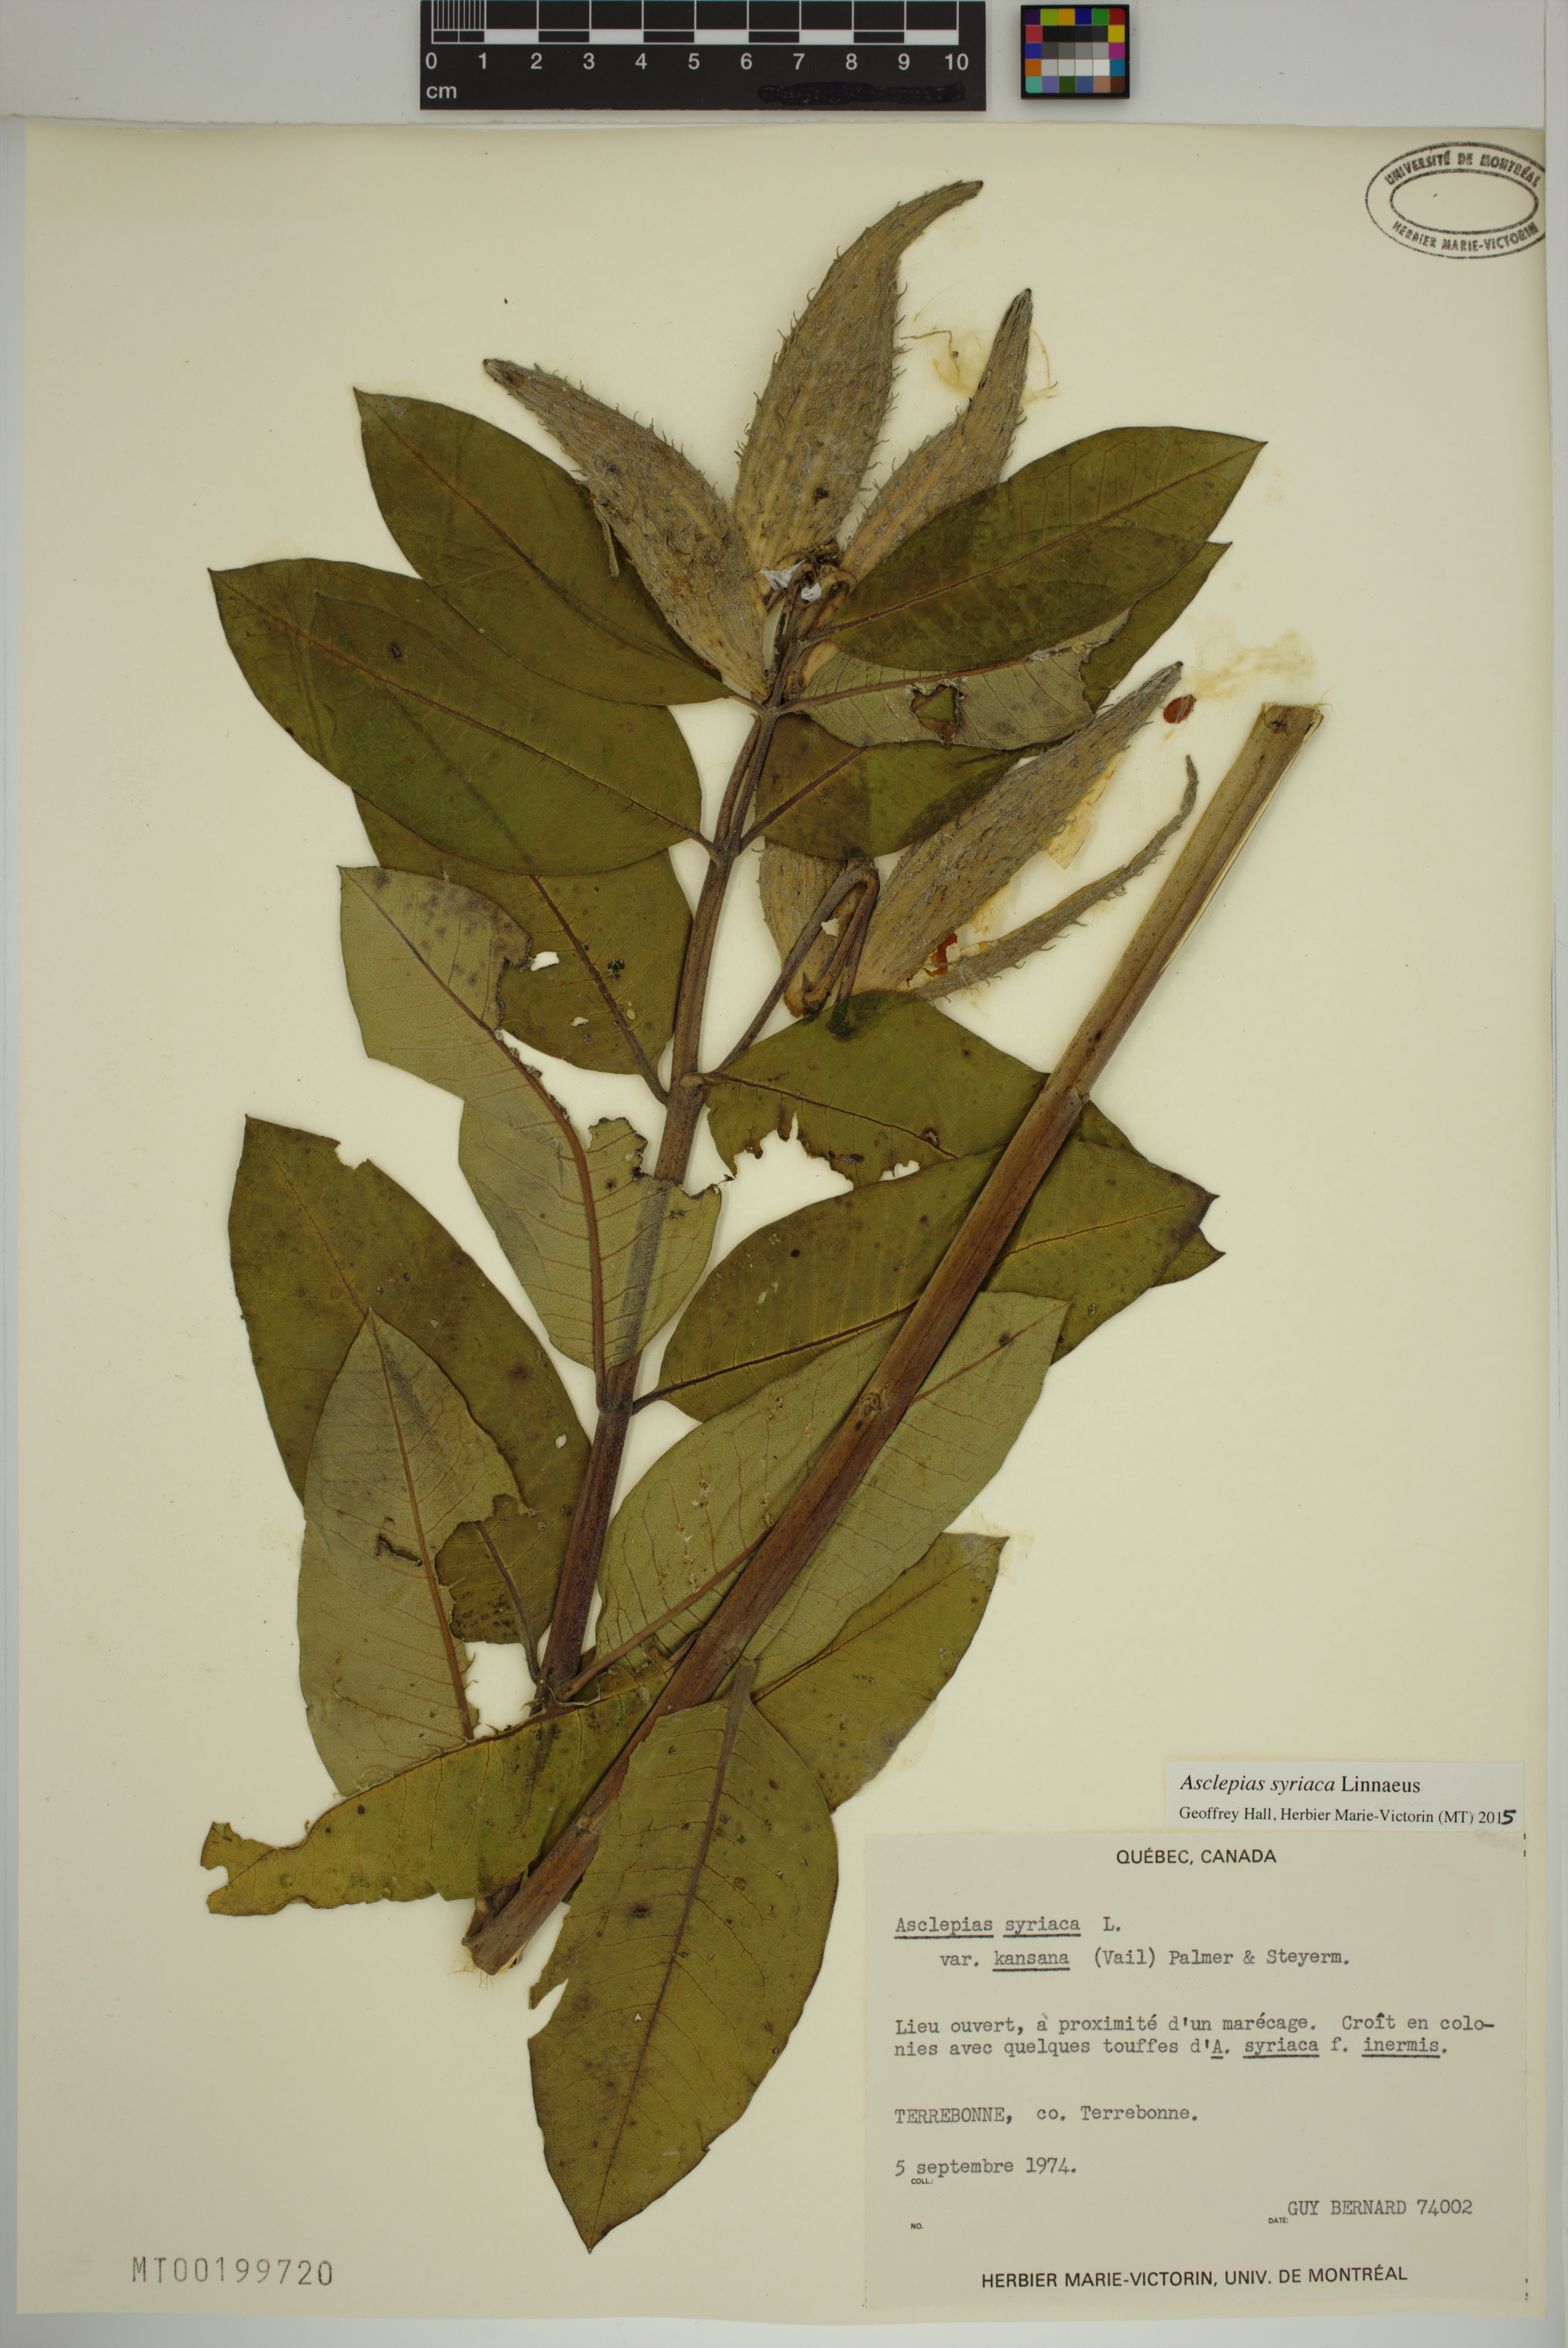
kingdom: Plantae
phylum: Tracheophyta
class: Magnoliopsida
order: Gentianales
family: Apocynaceae
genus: Asclepias
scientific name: Asclepias syriaca
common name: Common milkweed
